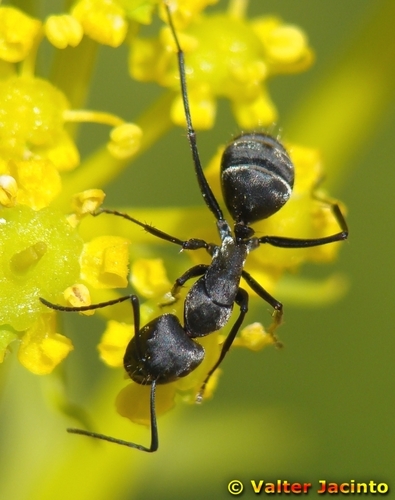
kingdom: Animalia
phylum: Arthropoda
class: Insecta
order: Hymenoptera
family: Formicidae
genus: Camponotus
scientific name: Camponotus micans
